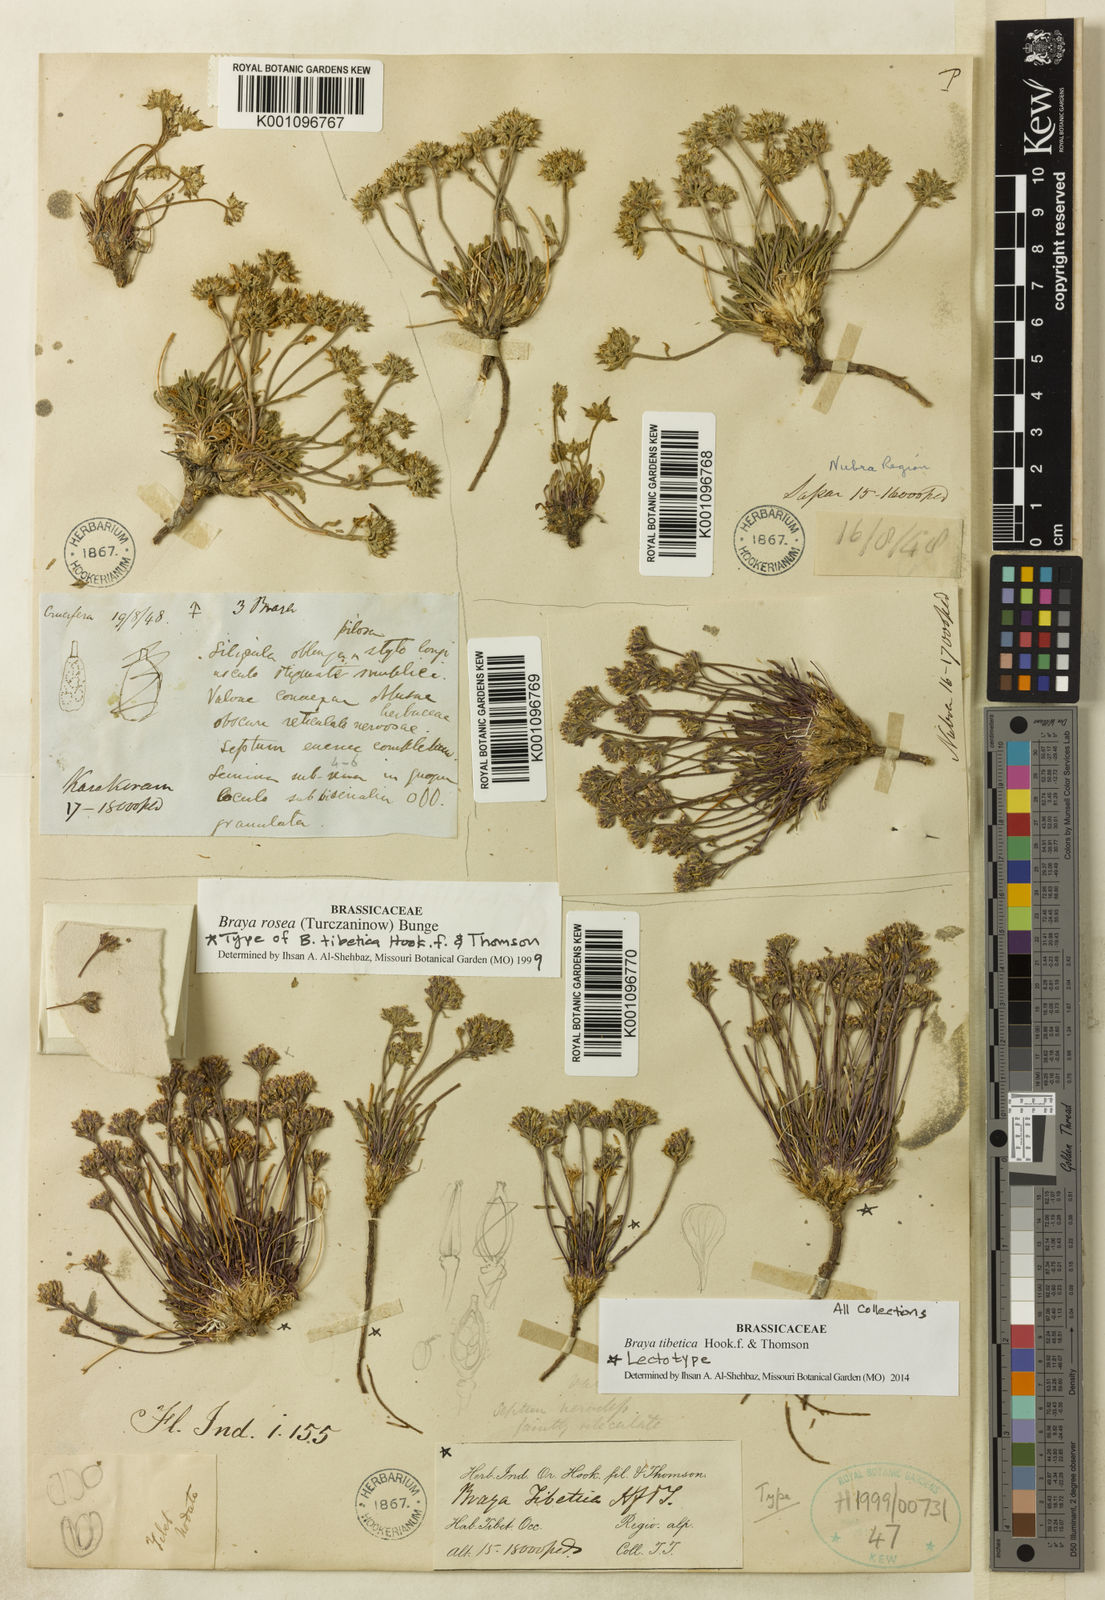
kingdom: Plantae
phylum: Tracheophyta
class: Magnoliopsida
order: Brassicales
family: Brassicaceae
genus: Braya
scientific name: Braya tibetica
